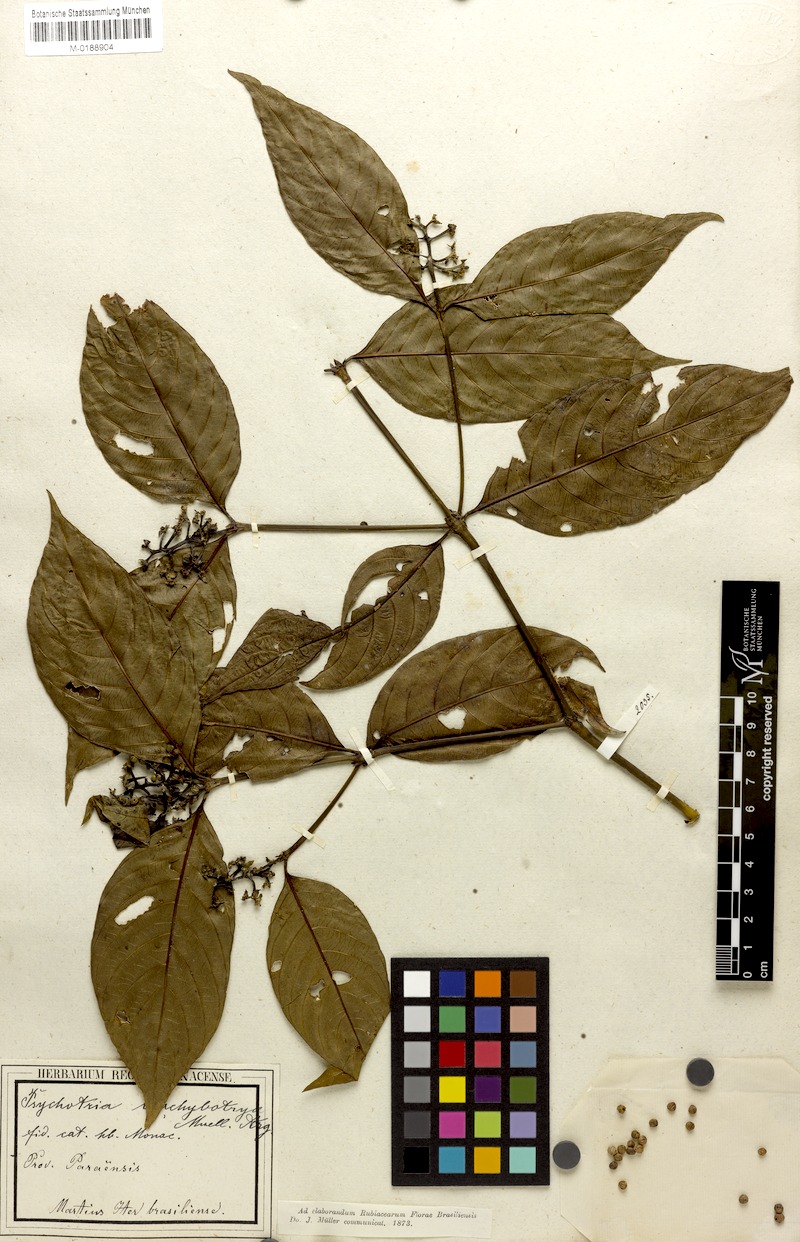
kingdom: Plantae
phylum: Tracheophyta
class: Magnoliopsida
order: Gentianales
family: Rubiaceae
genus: Palicourea
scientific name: Palicourea gracilenta
